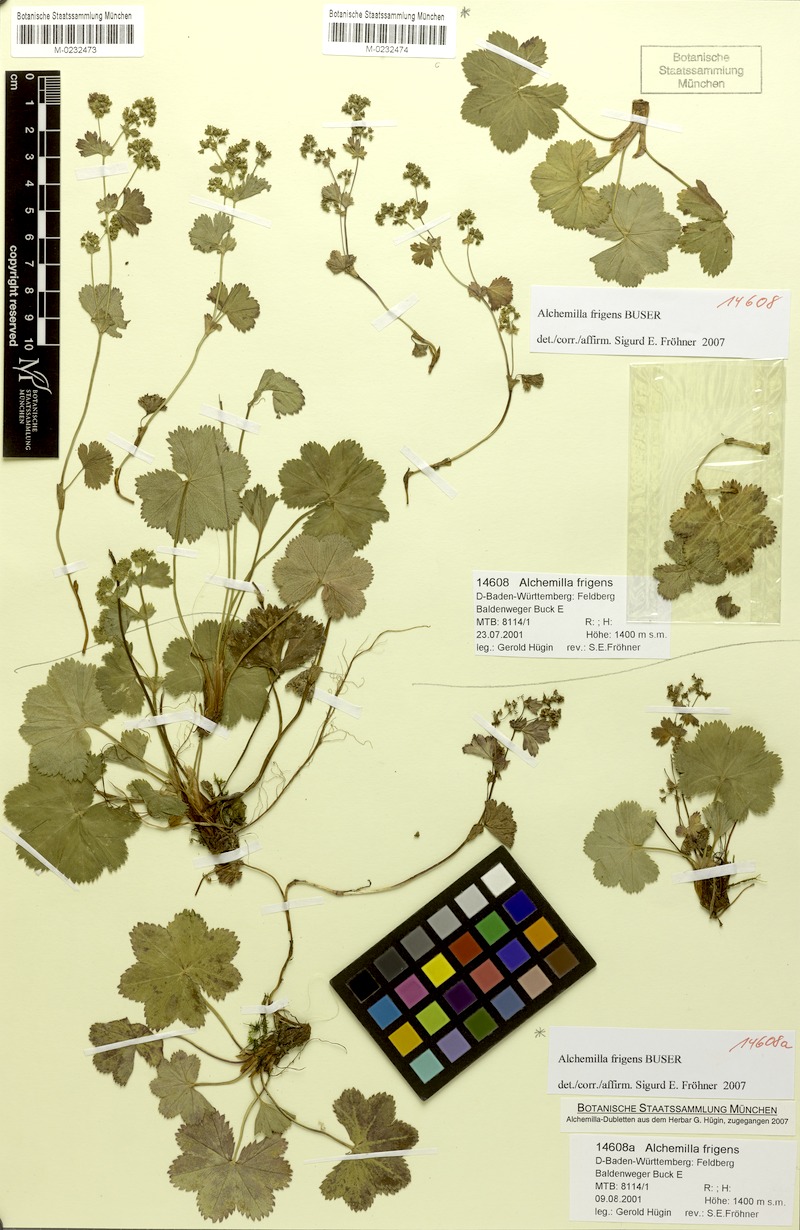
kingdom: Plantae
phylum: Tracheophyta
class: Magnoliopsida
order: Rosales
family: Rosaceae
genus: Alchemilla
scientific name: Alchemilla frigens
